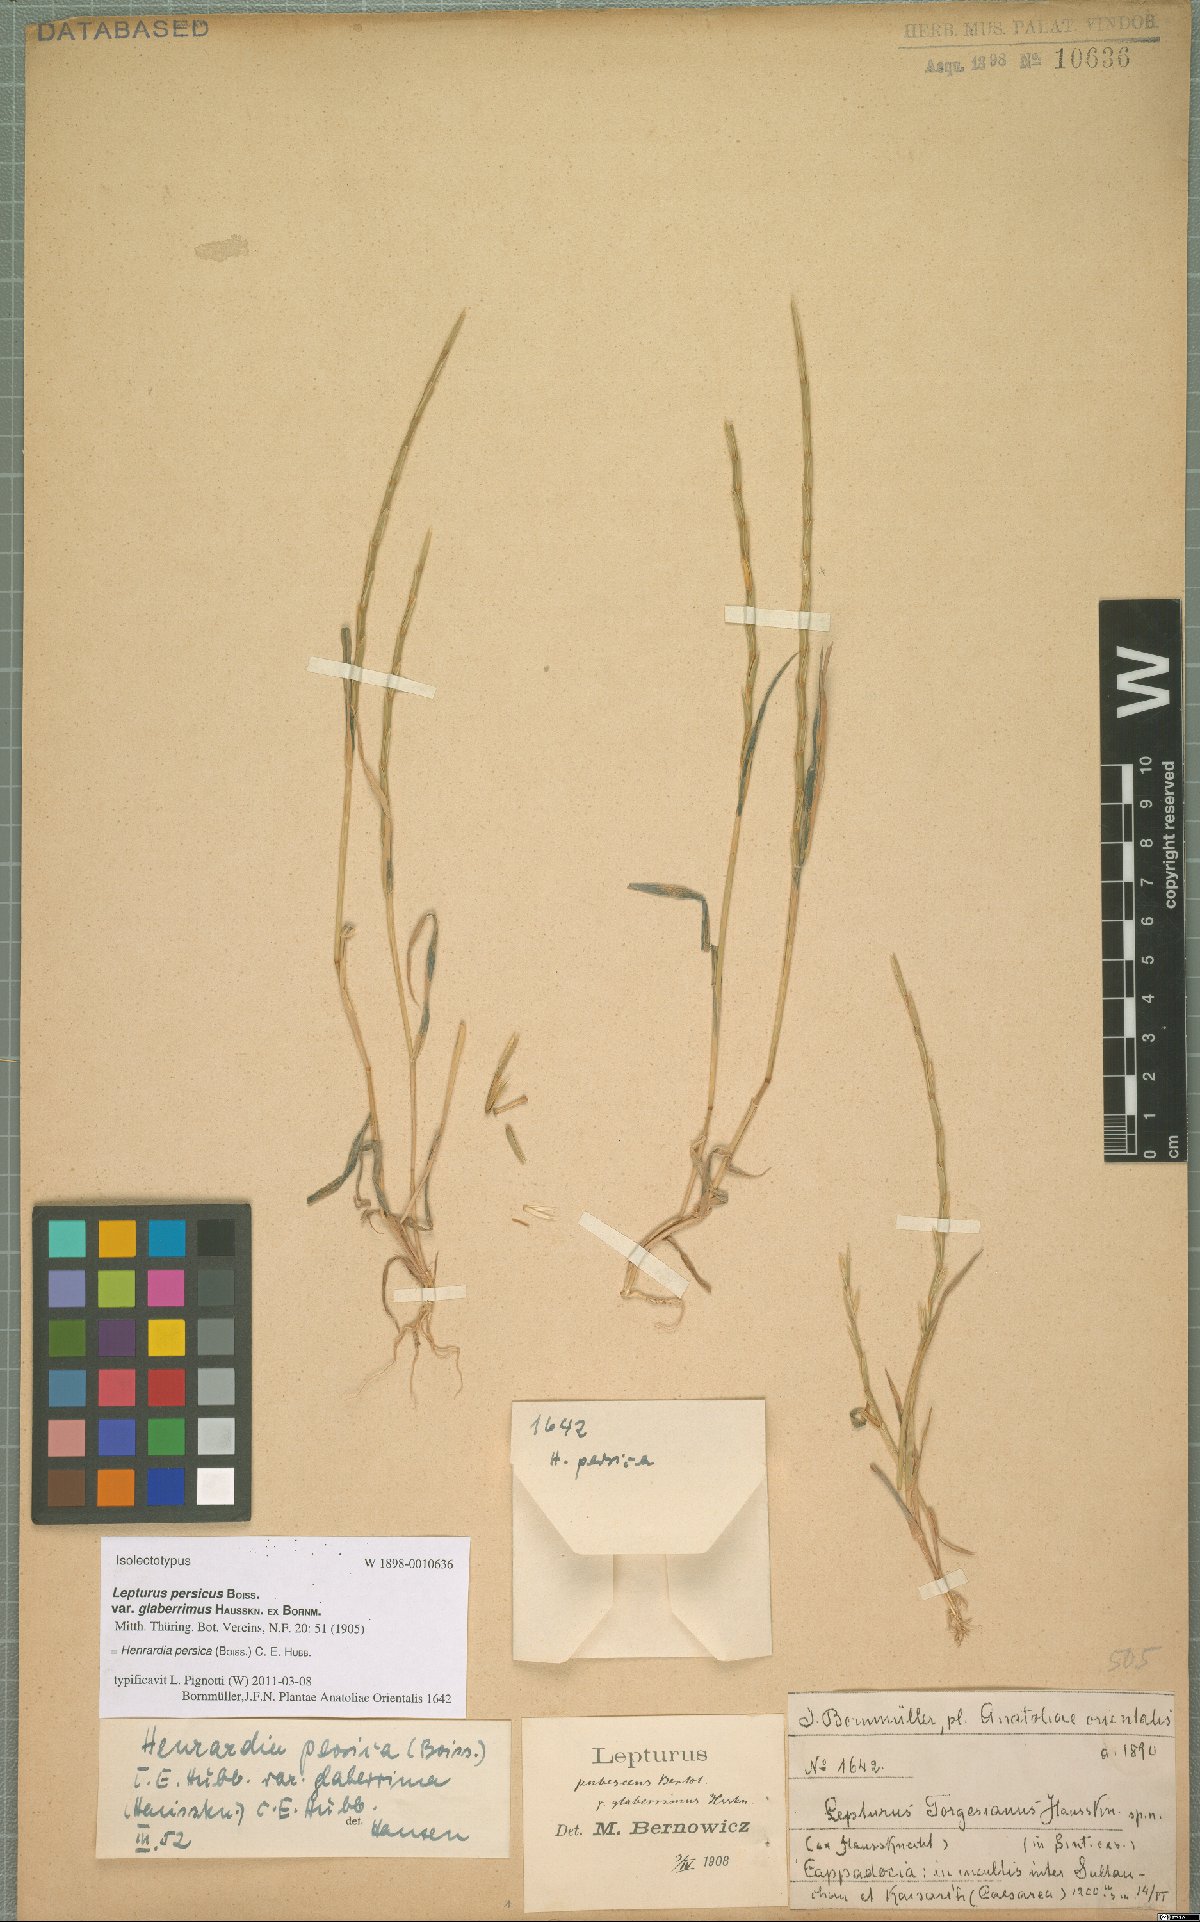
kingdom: Plantae
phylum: Tracheophyta
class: Liliopsida
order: Poales
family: Poaceae
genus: Henrardia
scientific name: Henrardia persica
